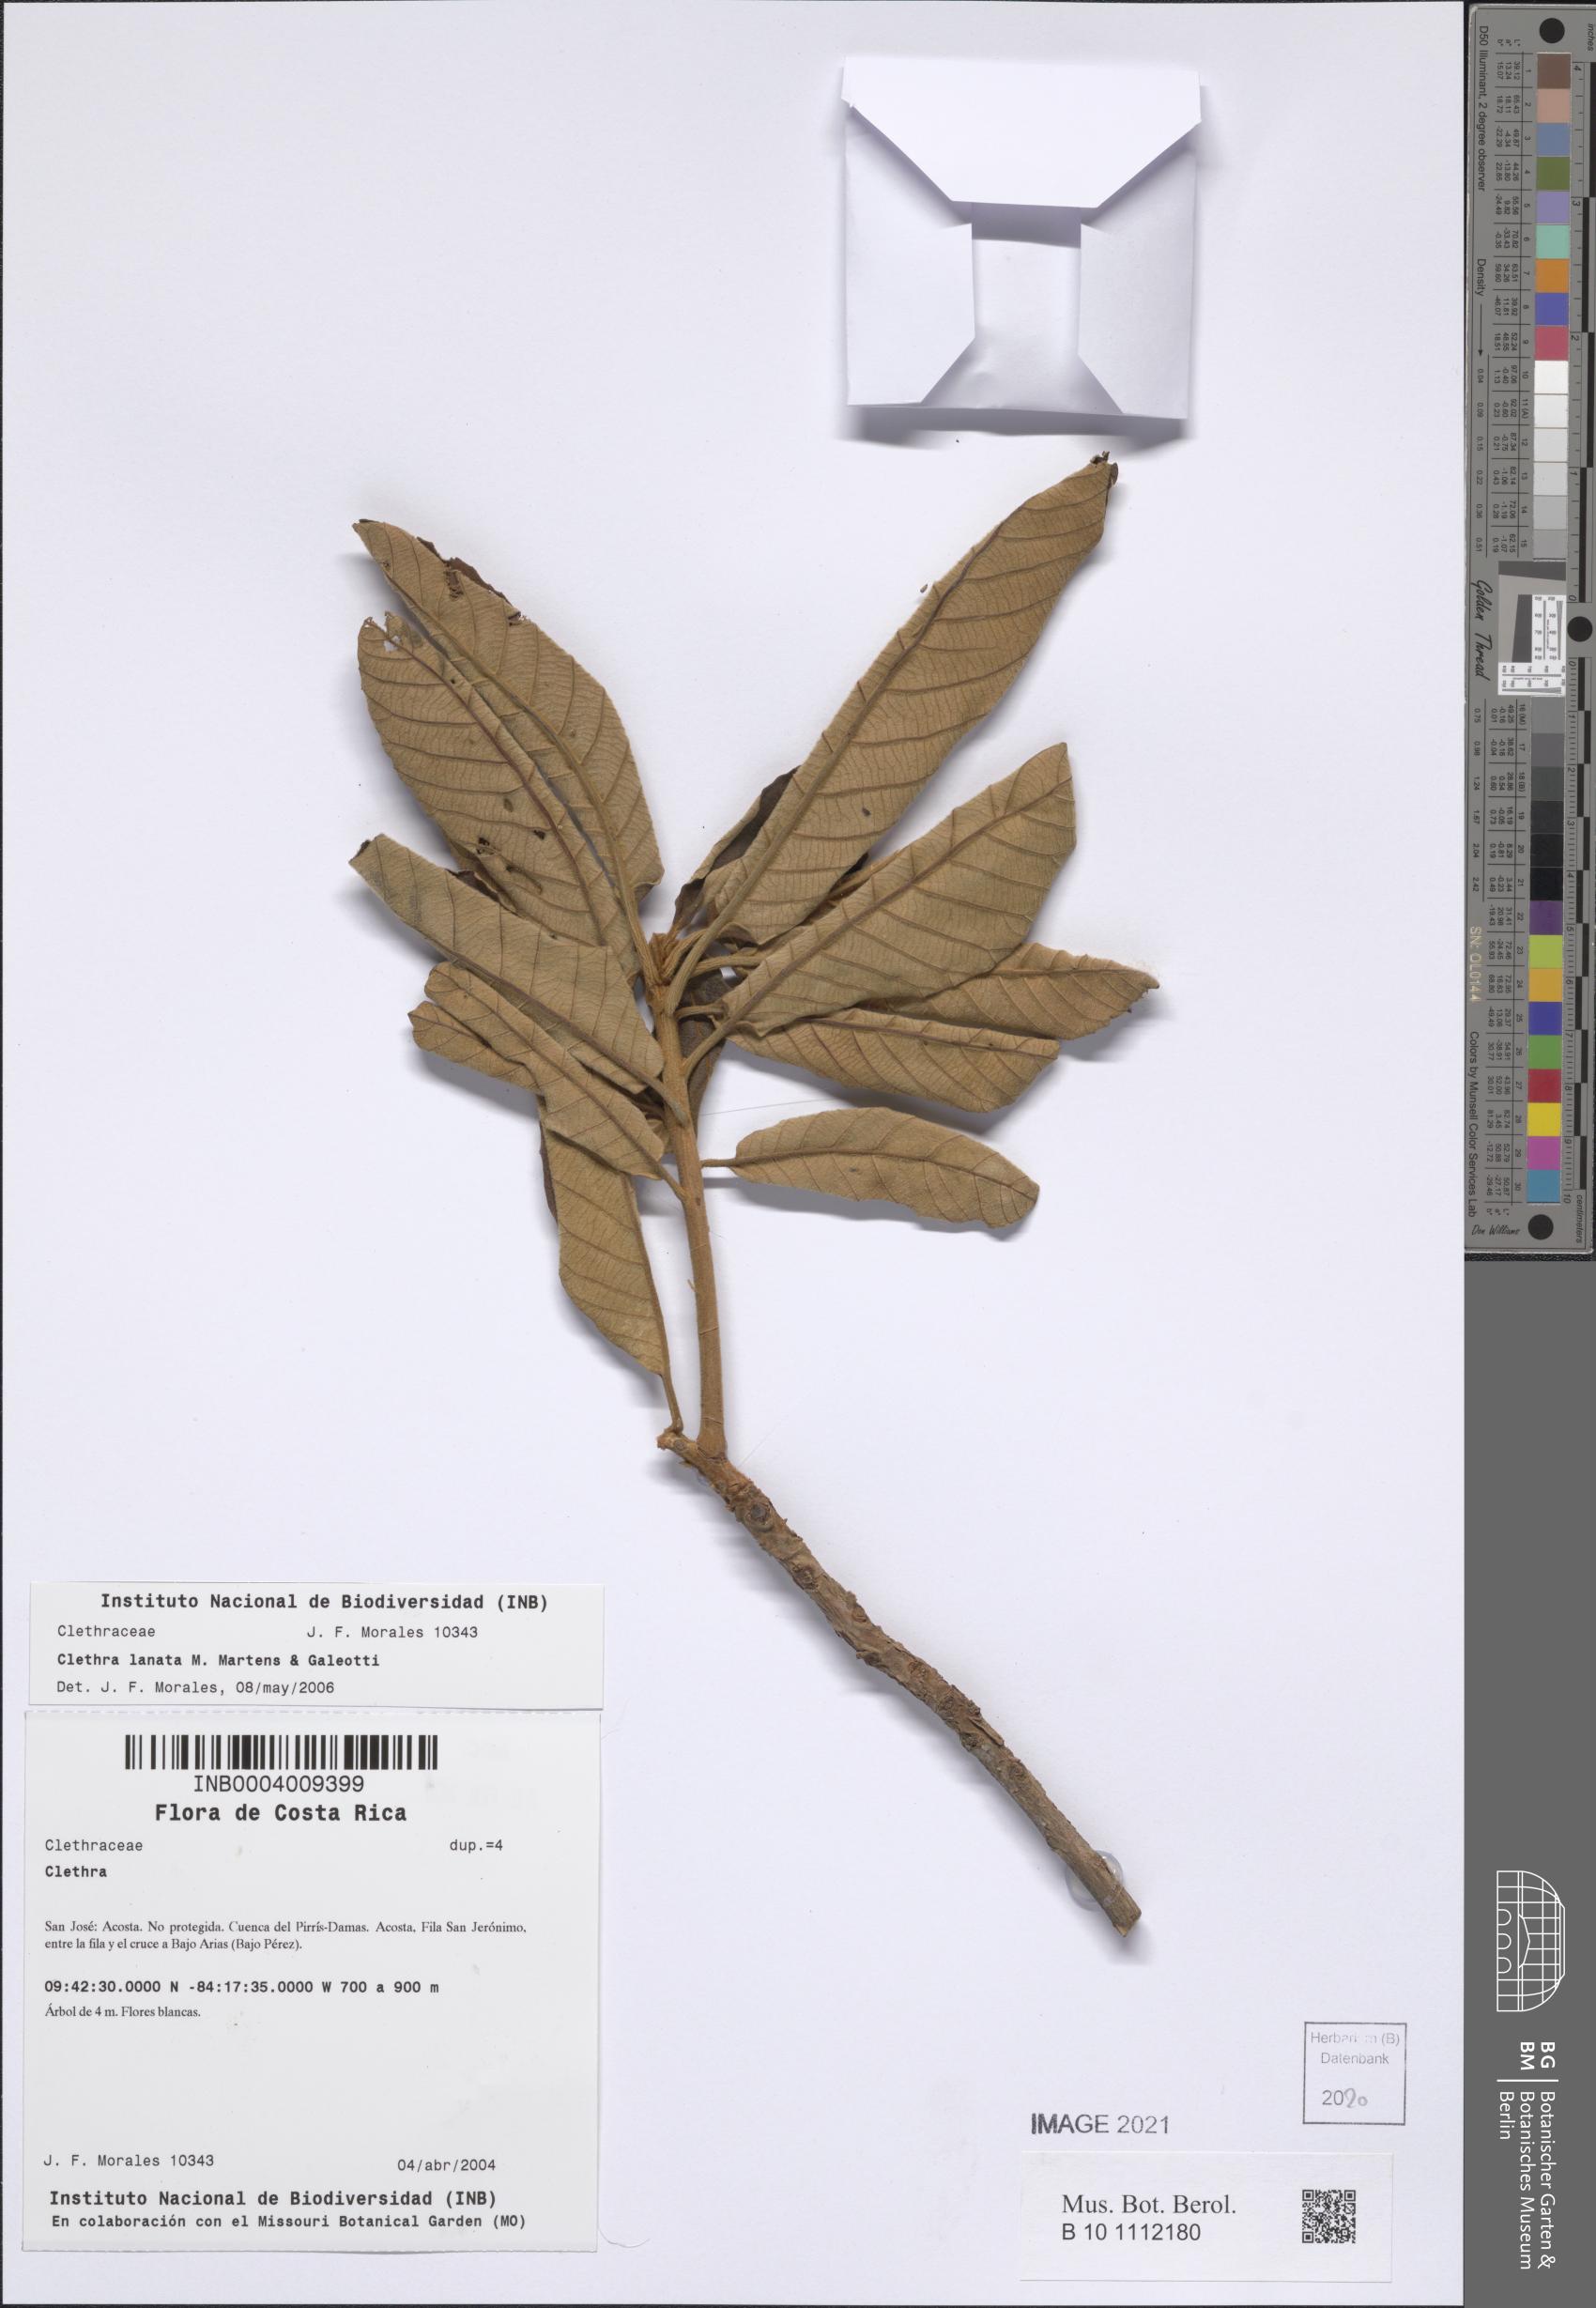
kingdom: Plantae
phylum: Tracheophyta
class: Magnoliopsida
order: Ericales
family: Clethraceae
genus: Clethra
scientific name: Clethra lanata
